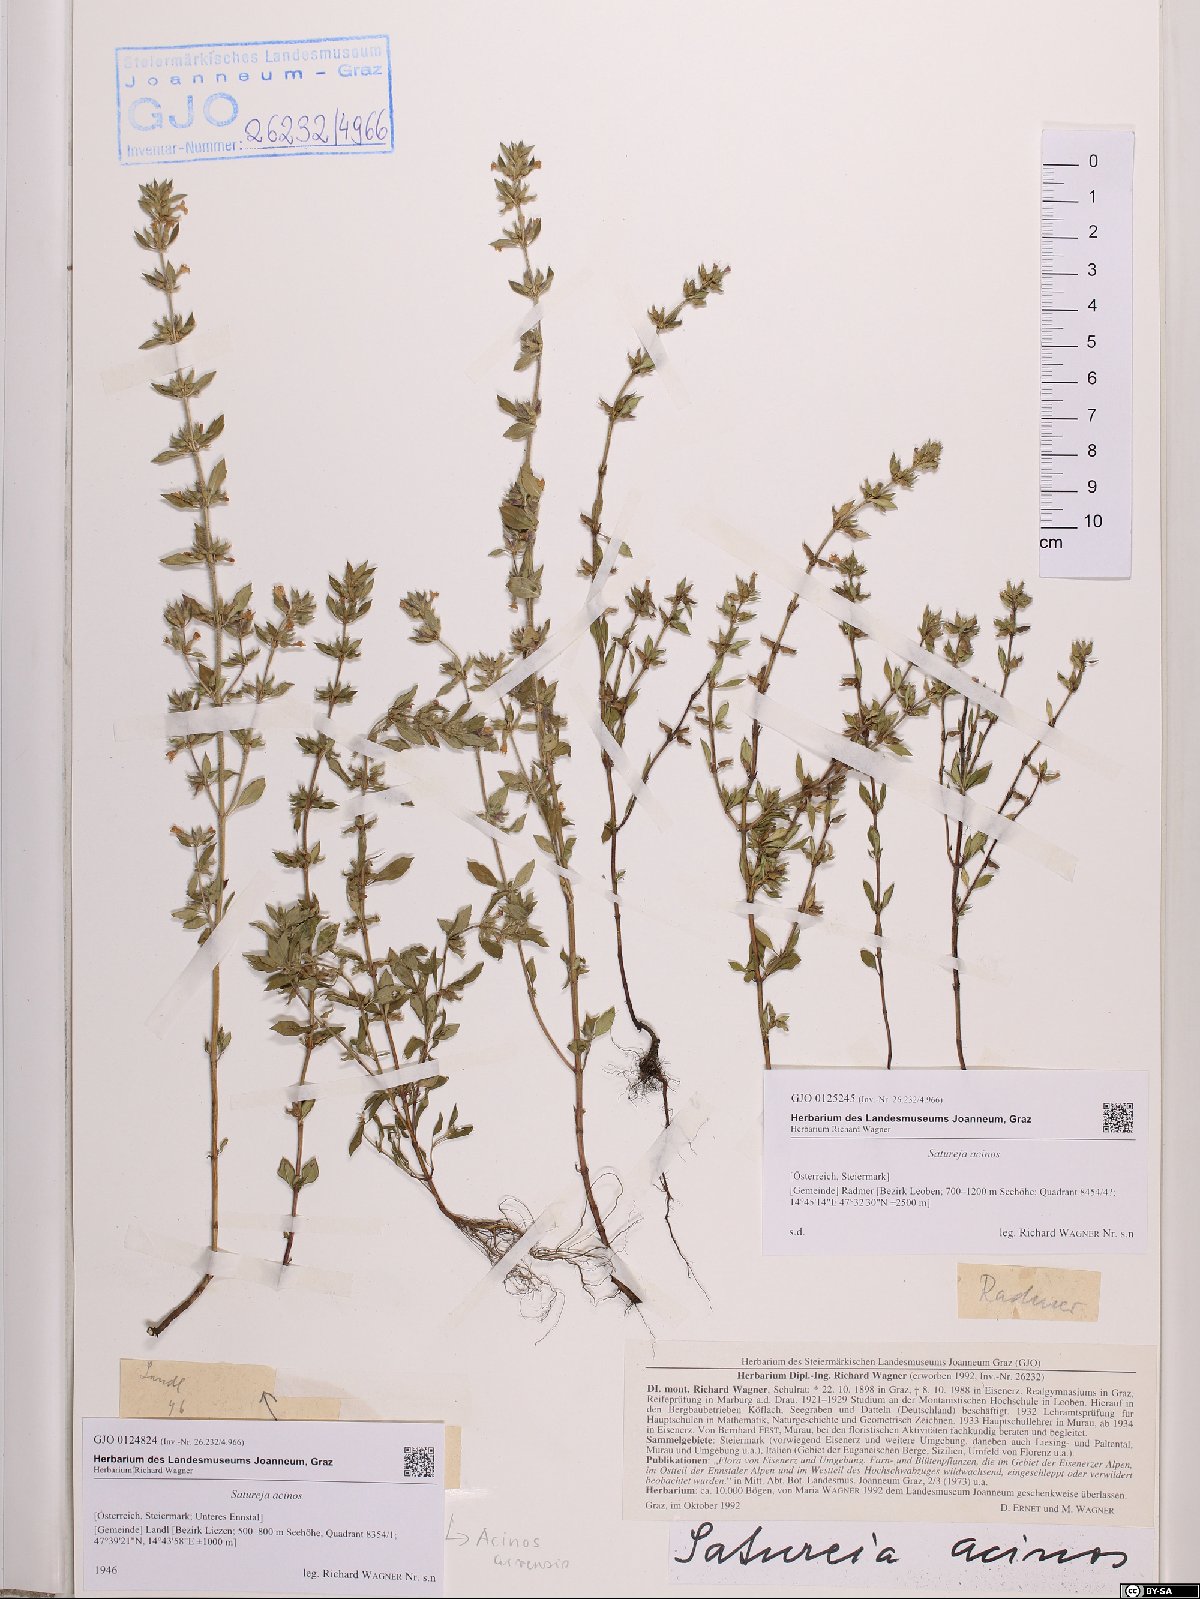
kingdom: Plantae
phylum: Tracheophyta
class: Magnoliopsida
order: Lamiales
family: Lamiaceae
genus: Clinopodium
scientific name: Clinopodium acinos
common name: Basil thyme
